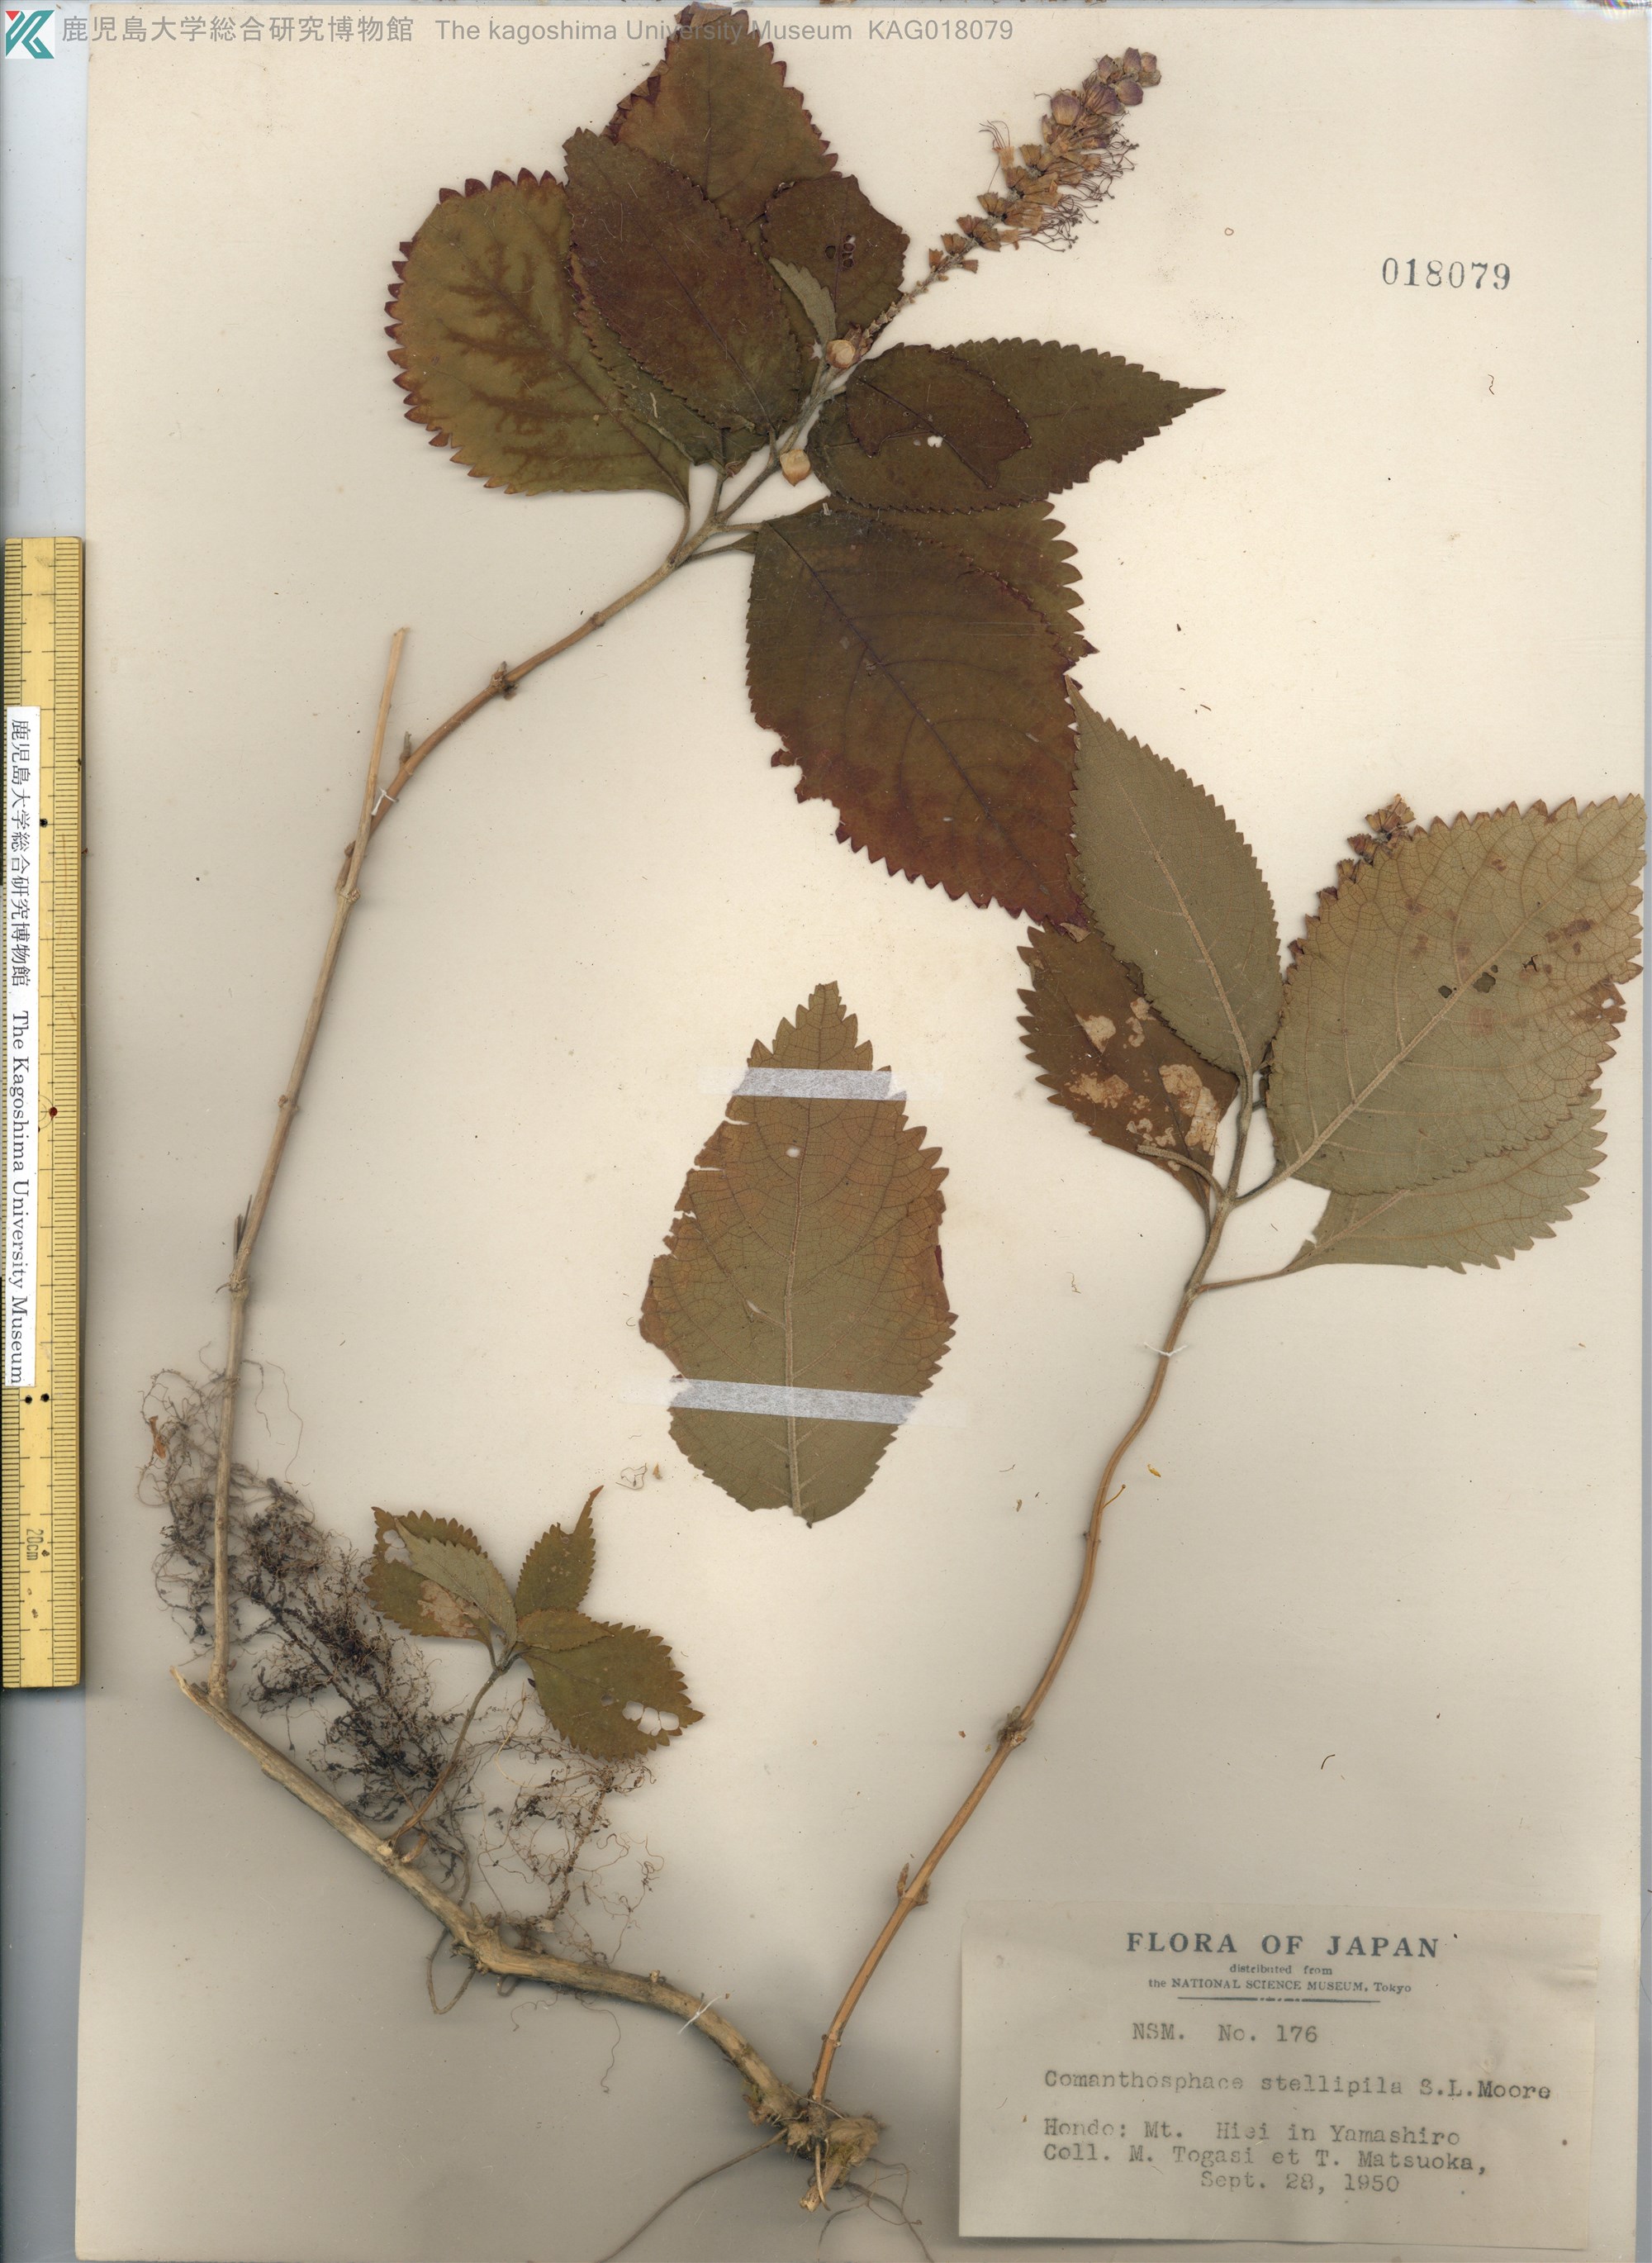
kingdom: Plantae
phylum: Tracheophyta
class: Magnoliopsida
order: Lamiales
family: Lamiaceae
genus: Comanthosphace
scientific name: Comanthosphace stellipila
